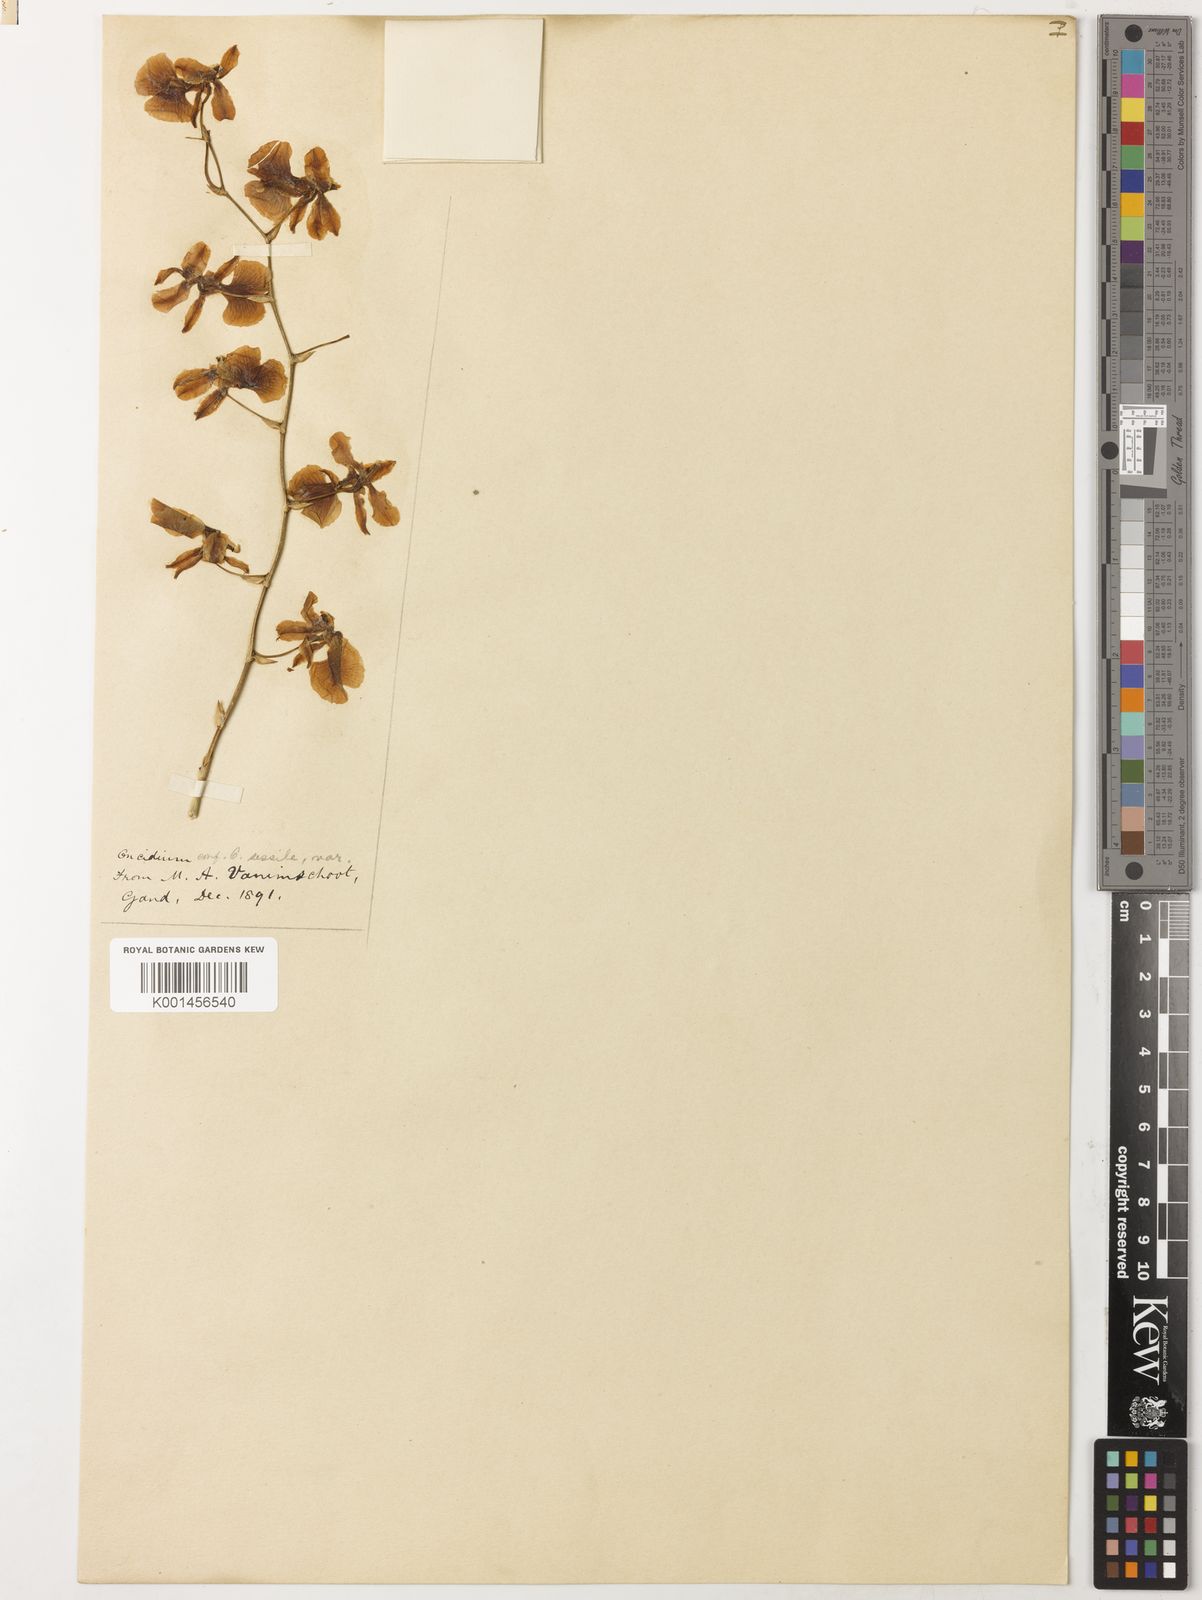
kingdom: Plantae
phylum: Tracheophyta
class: Liliopsida
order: Asparagales
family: Orchidaceae
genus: Oncidium
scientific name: Oncidium sessile
